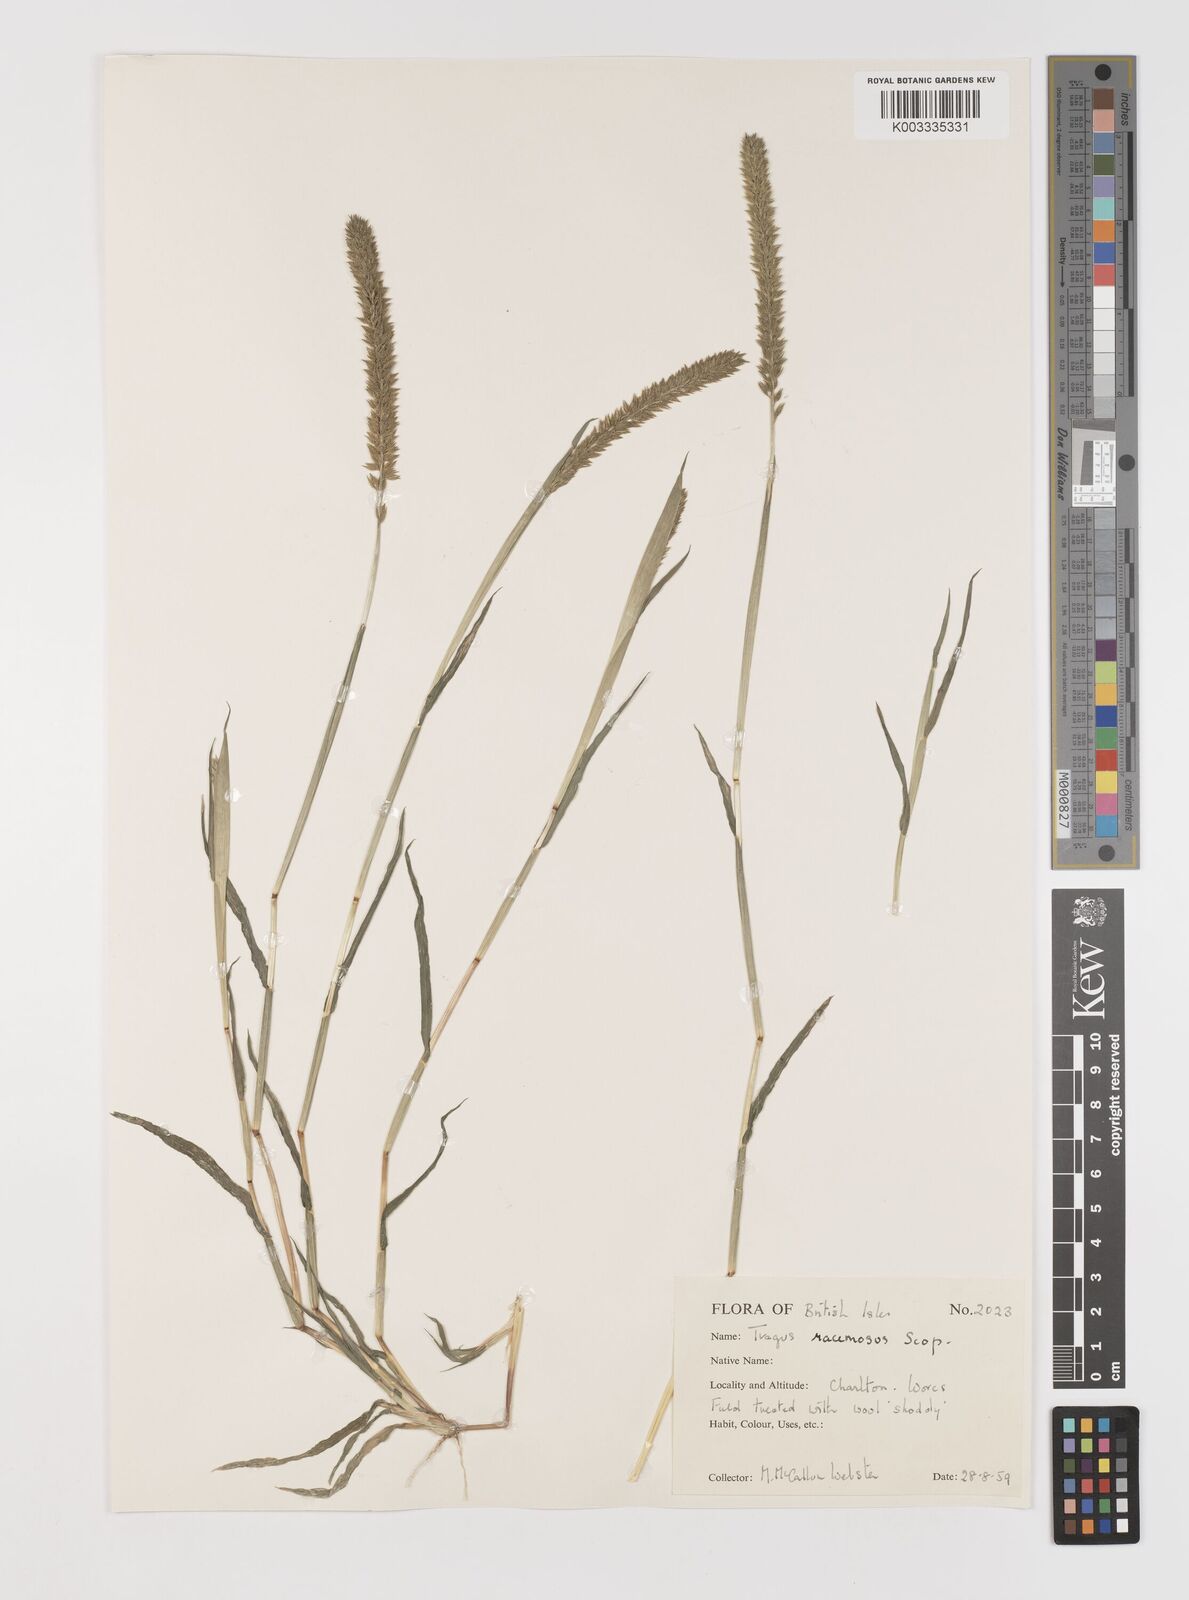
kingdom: Plantae
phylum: Tracheophyta
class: Liliopsida
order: Poales
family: Poaceae
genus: Tragus
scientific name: Tragus racemosus
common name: European bur-grass
